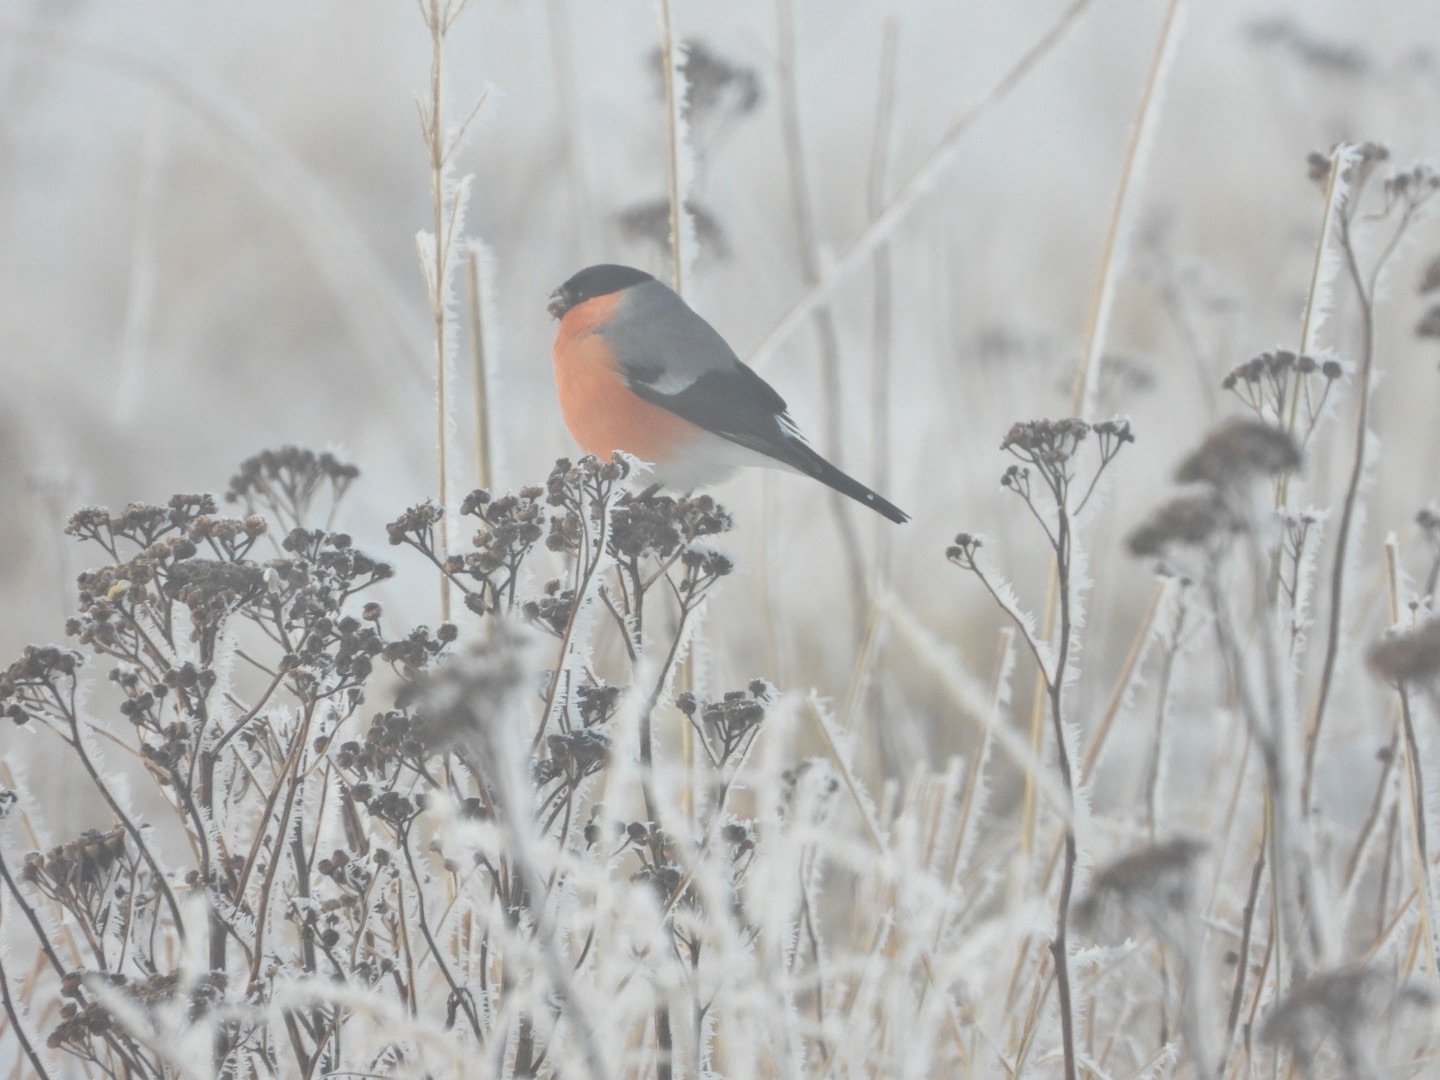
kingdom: Animalia
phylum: Chordata
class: Aves
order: Passeriformes
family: Fringillidae
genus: Pyrrhula
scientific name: Pyrrhula pyrrhula
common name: Dompap
